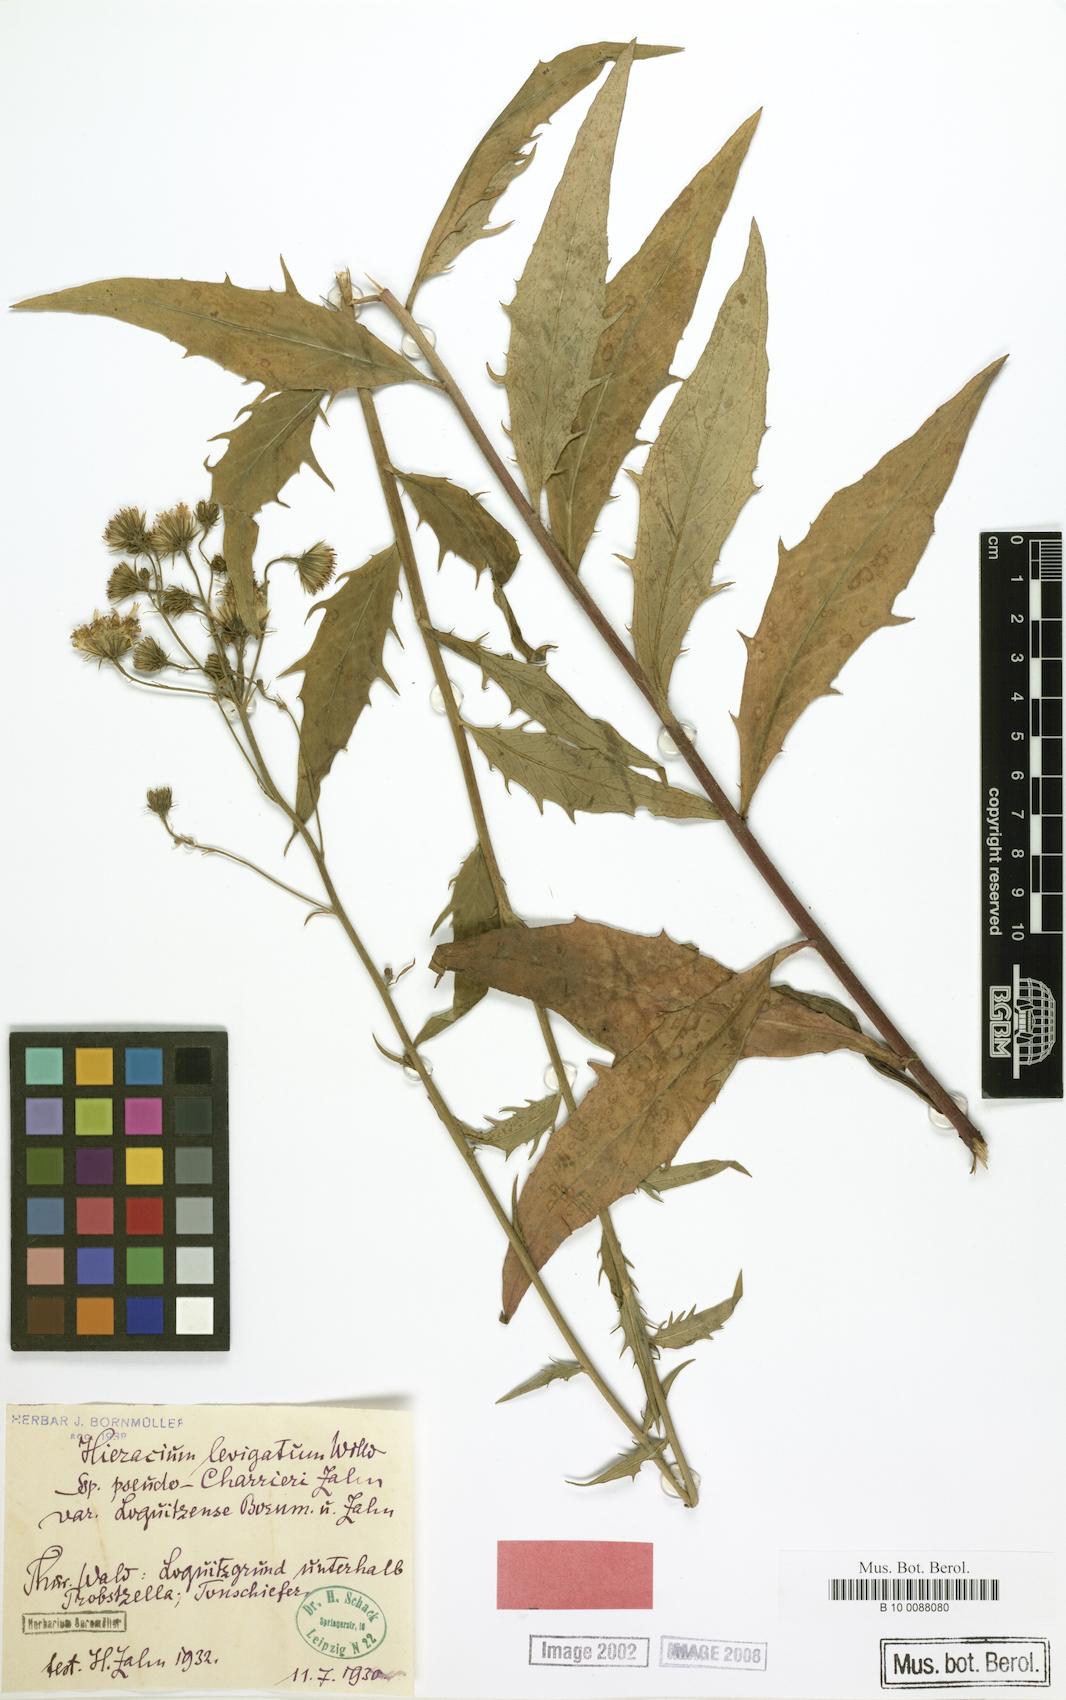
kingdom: Plantae
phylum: Tracheophyta
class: Magnoliopsida
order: Asterales
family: Asteraceae
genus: Hieracium
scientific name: Hieracium laevigatum
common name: Smooth hawkweed
